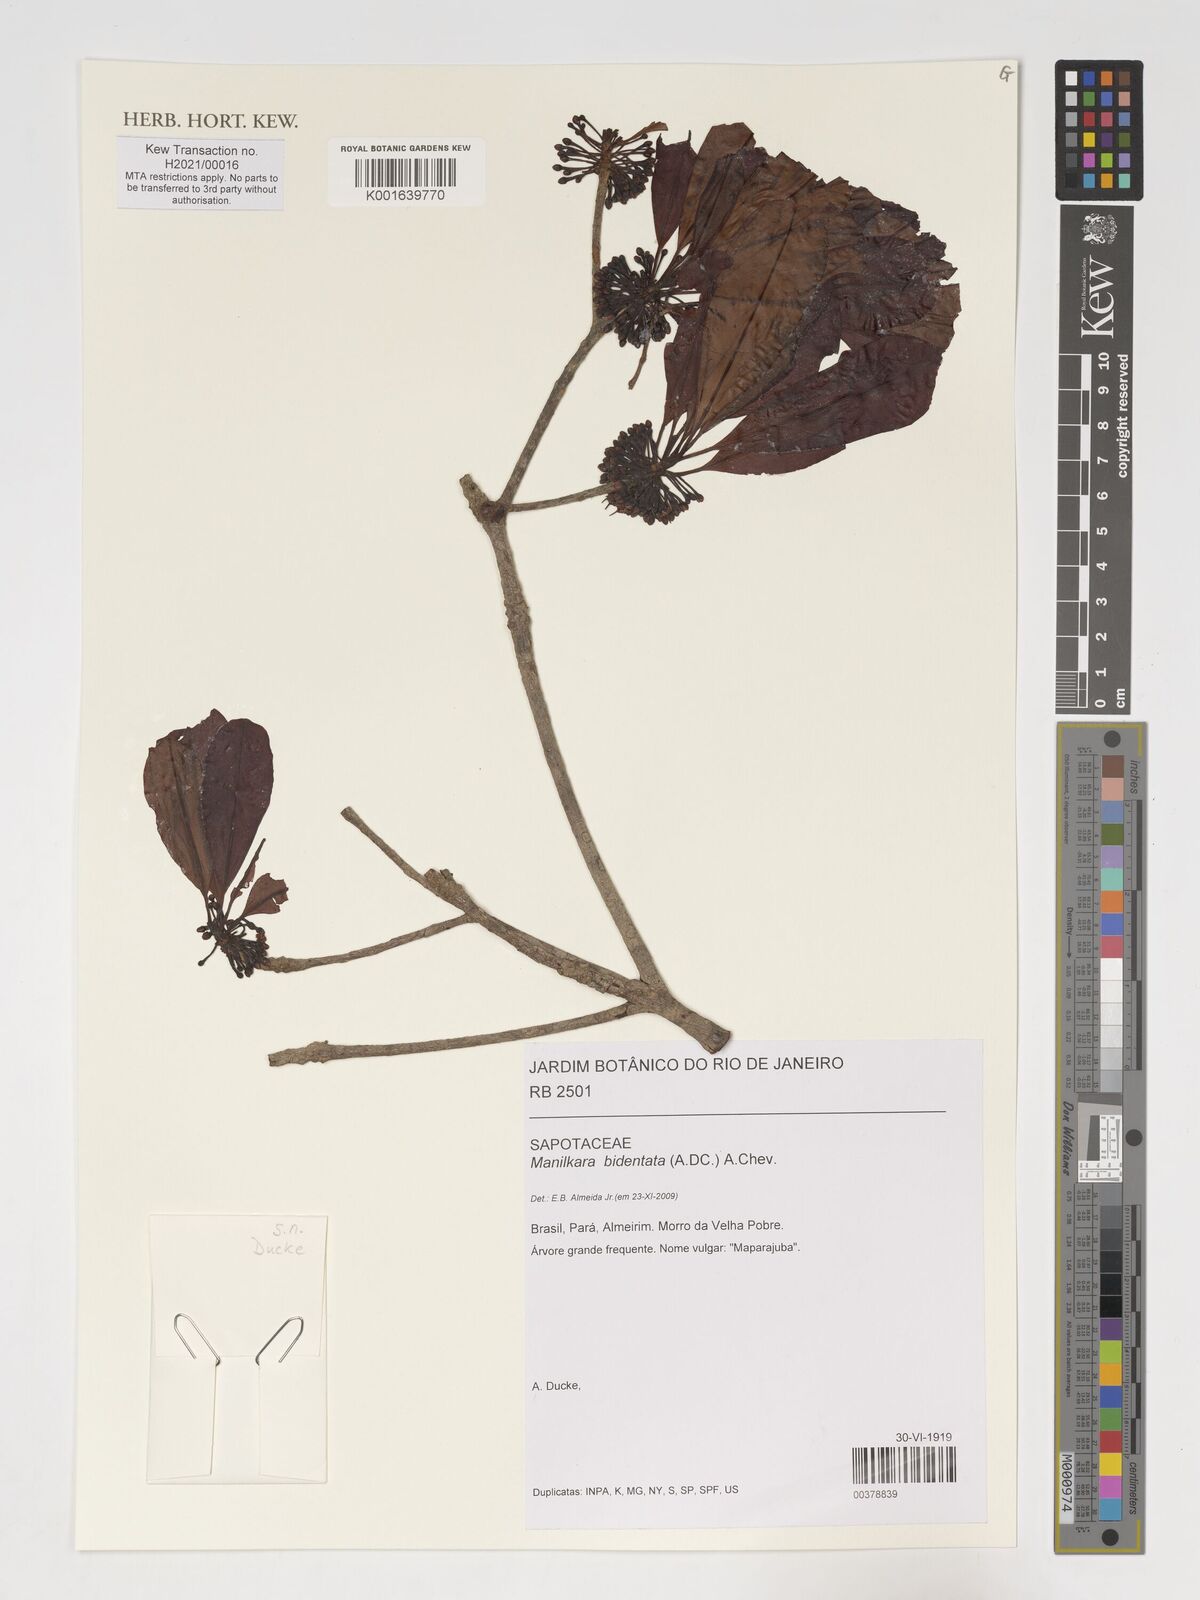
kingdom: Plantae
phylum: Tracheophyta
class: Magnoliopsida
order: Ericales
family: Sapotaceae
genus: Manilkara
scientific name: Manilkara bidentata
